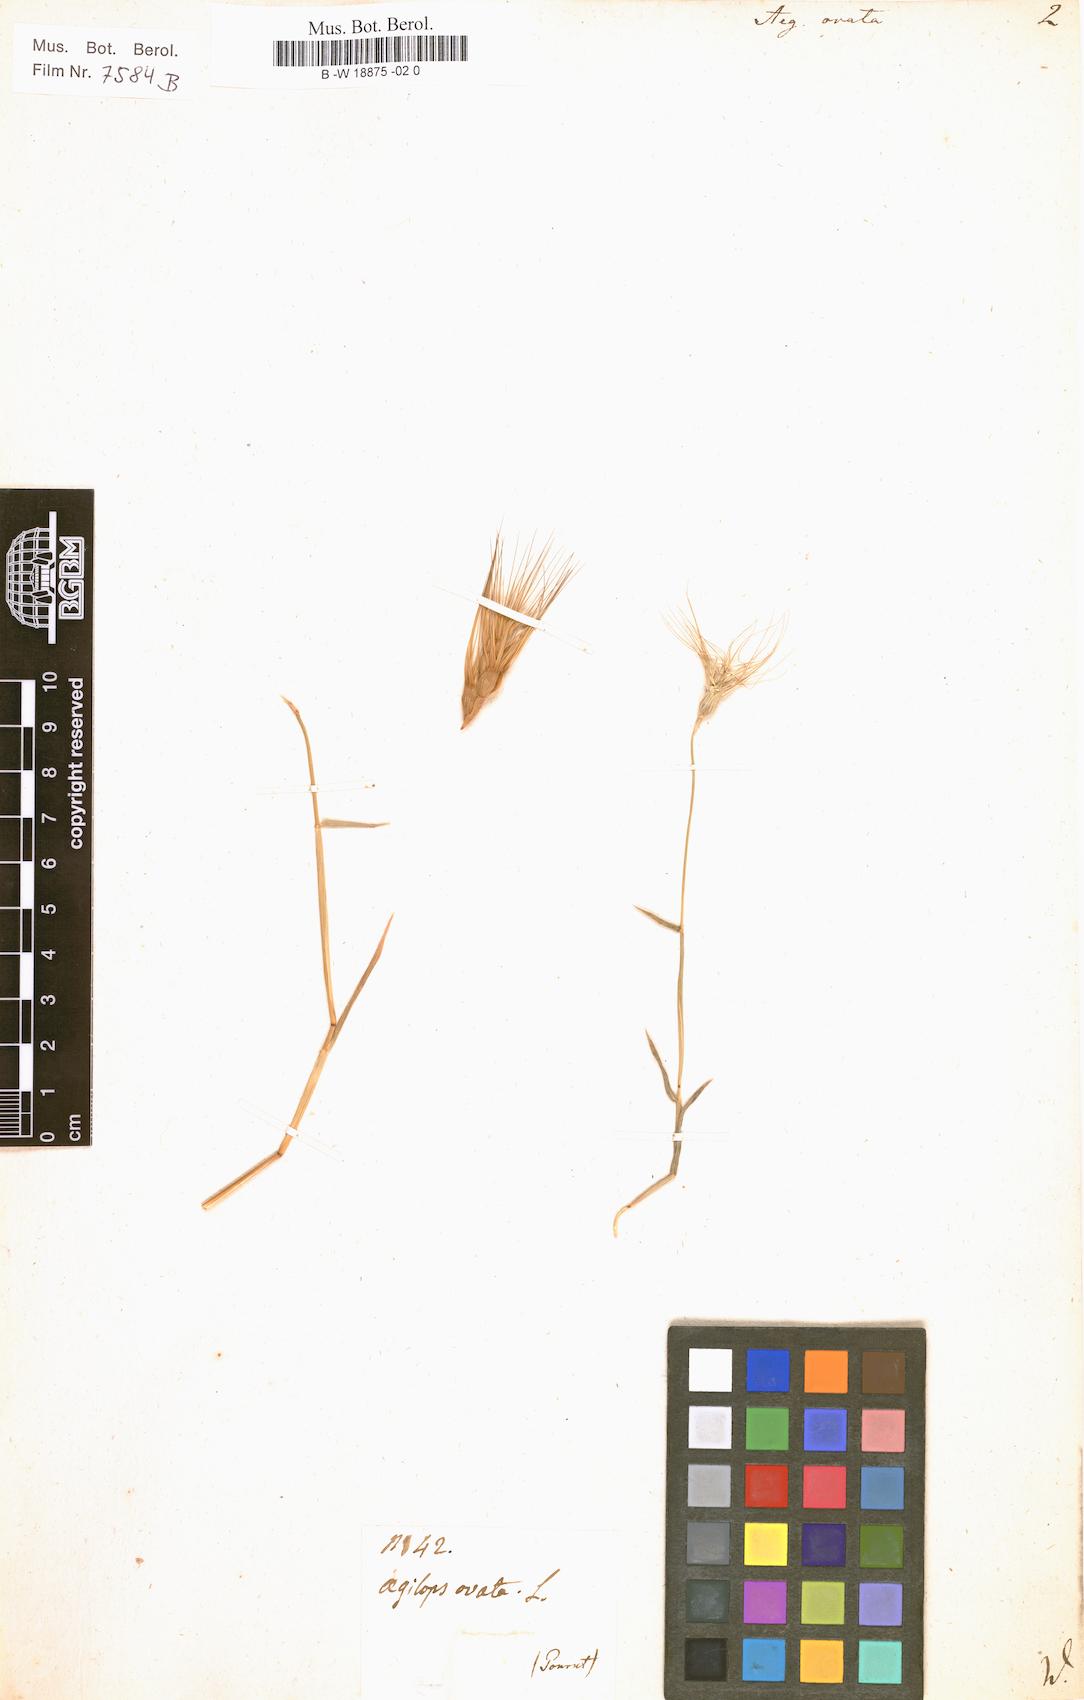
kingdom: Plantae
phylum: Tracheophyta
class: Liliopsida
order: Poales
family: Poaceae
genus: Aegilops
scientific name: Aegilops neglecta
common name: Three-awn goat grass
